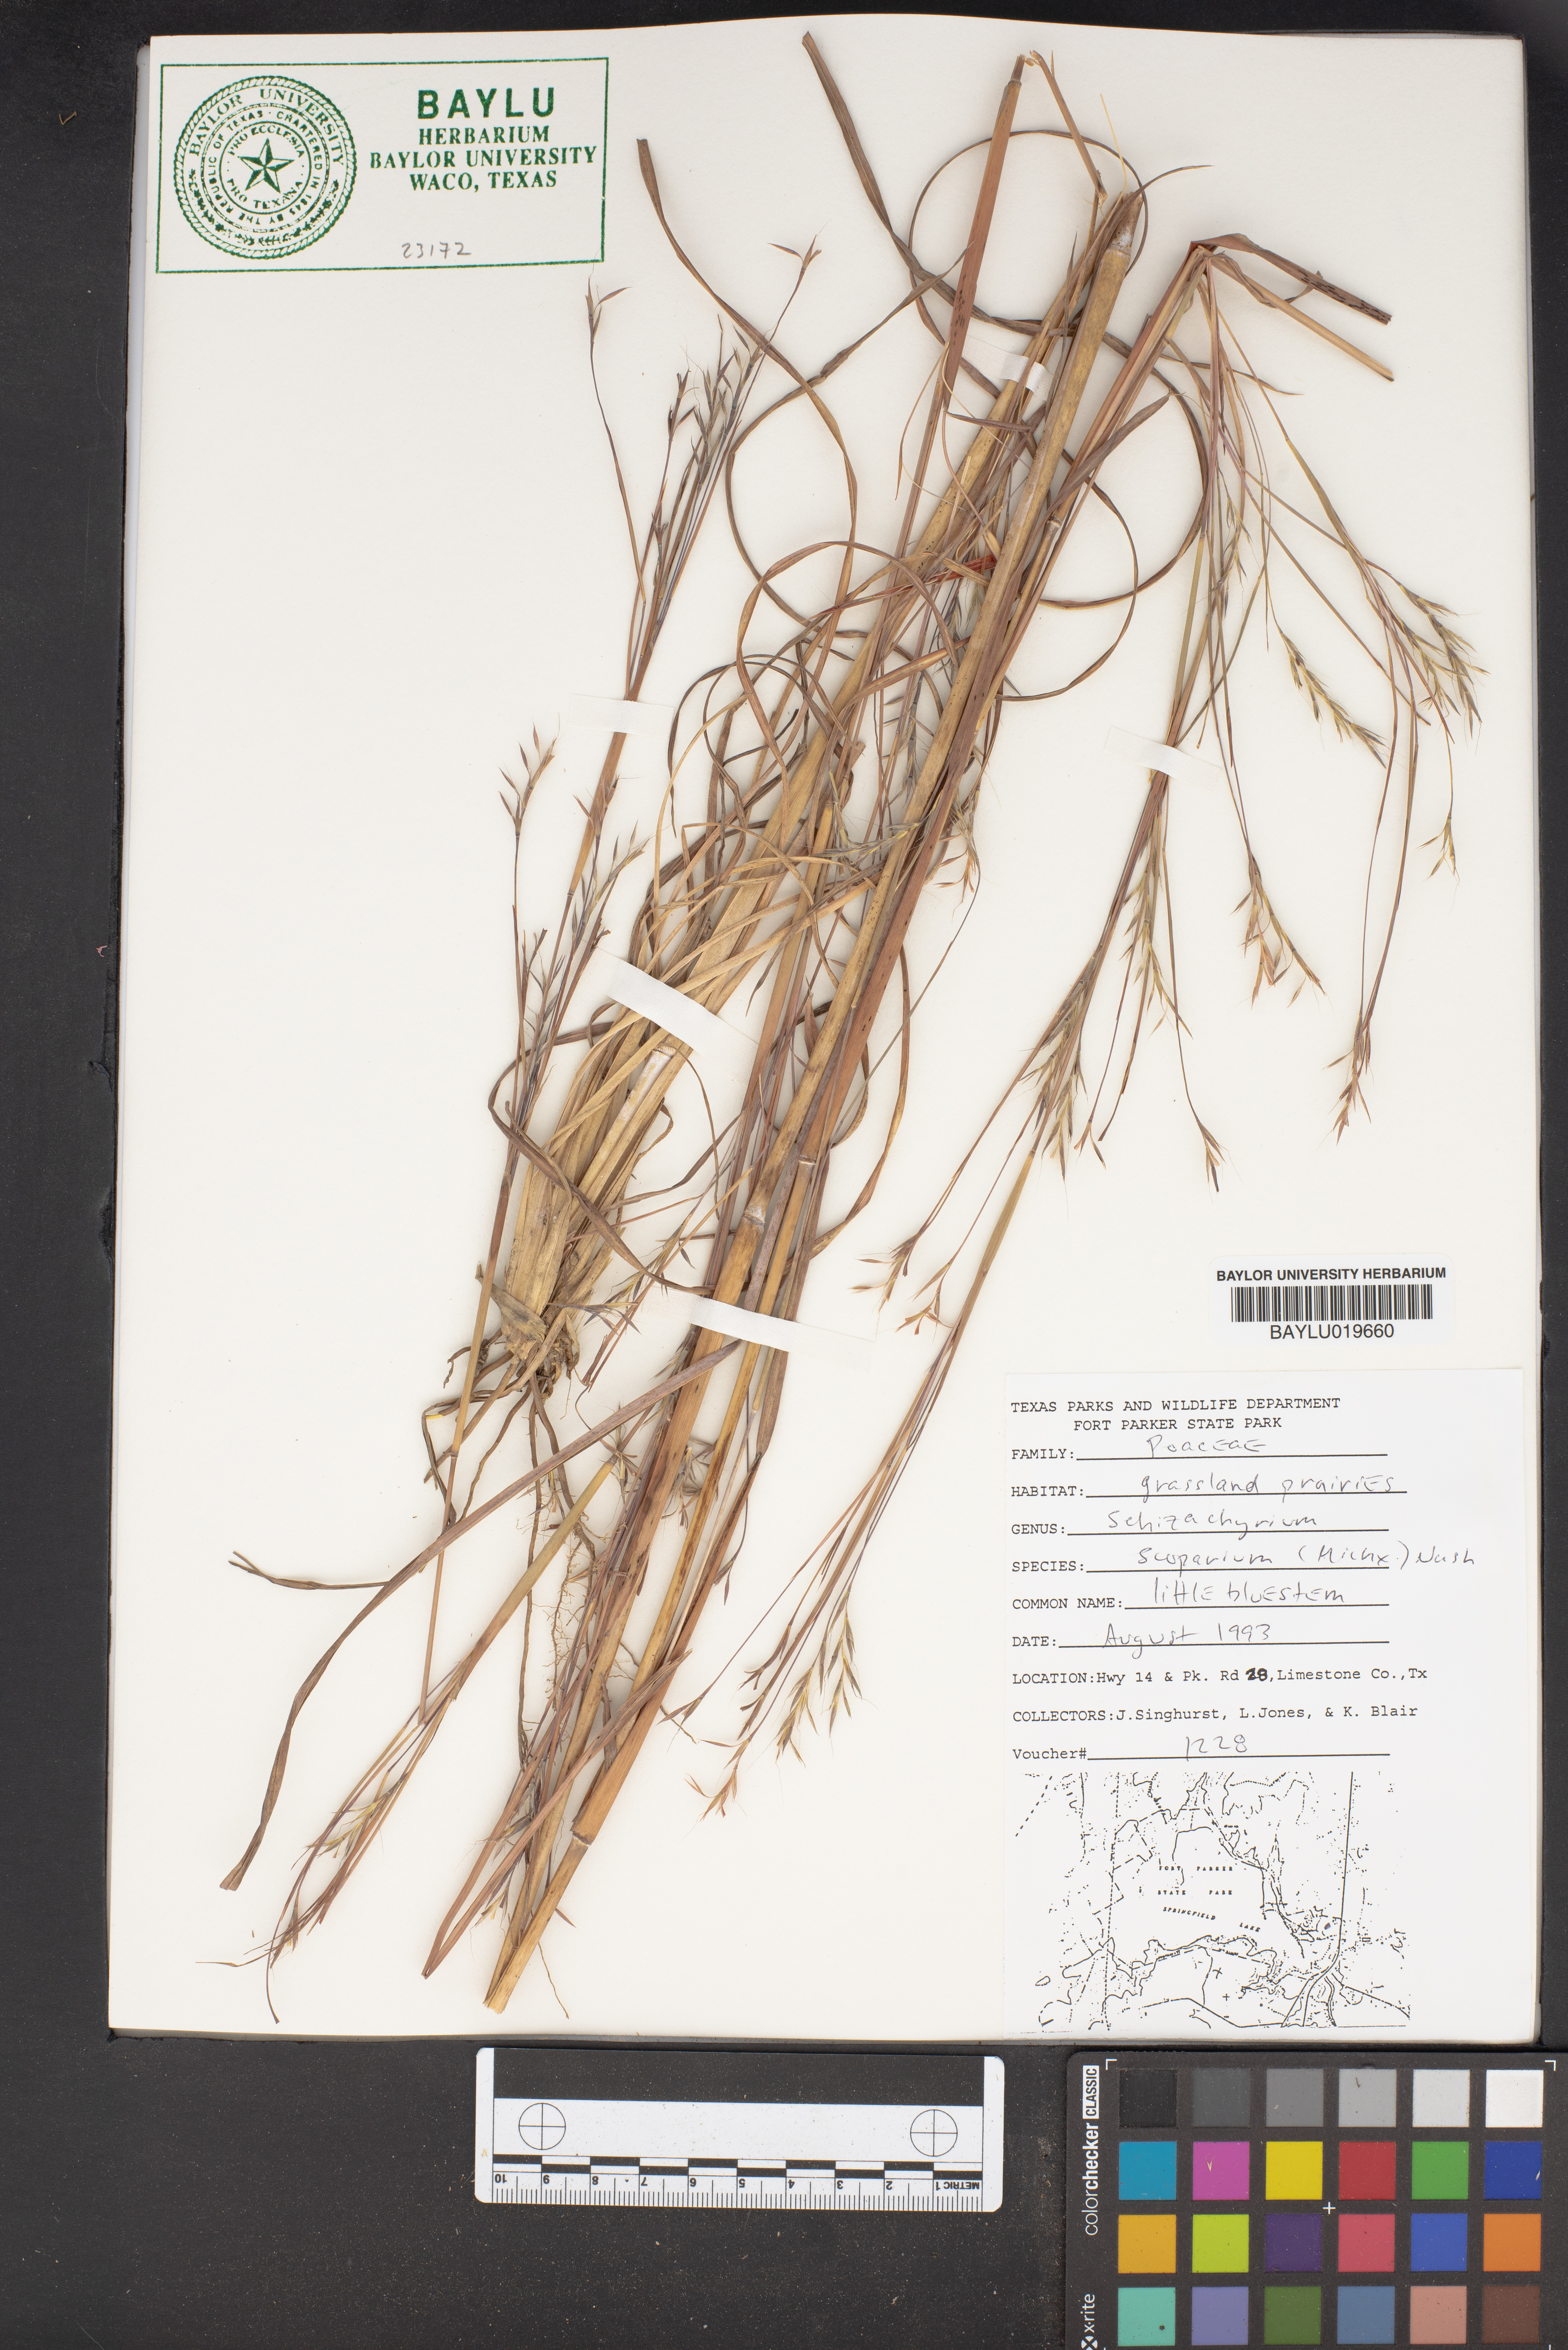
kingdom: Plantae
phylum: Tracheophyta
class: Liliopsida
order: Poales
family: Poaceae
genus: Schizachyrium
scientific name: Schizachyrium scoparium
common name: Little bluestem
